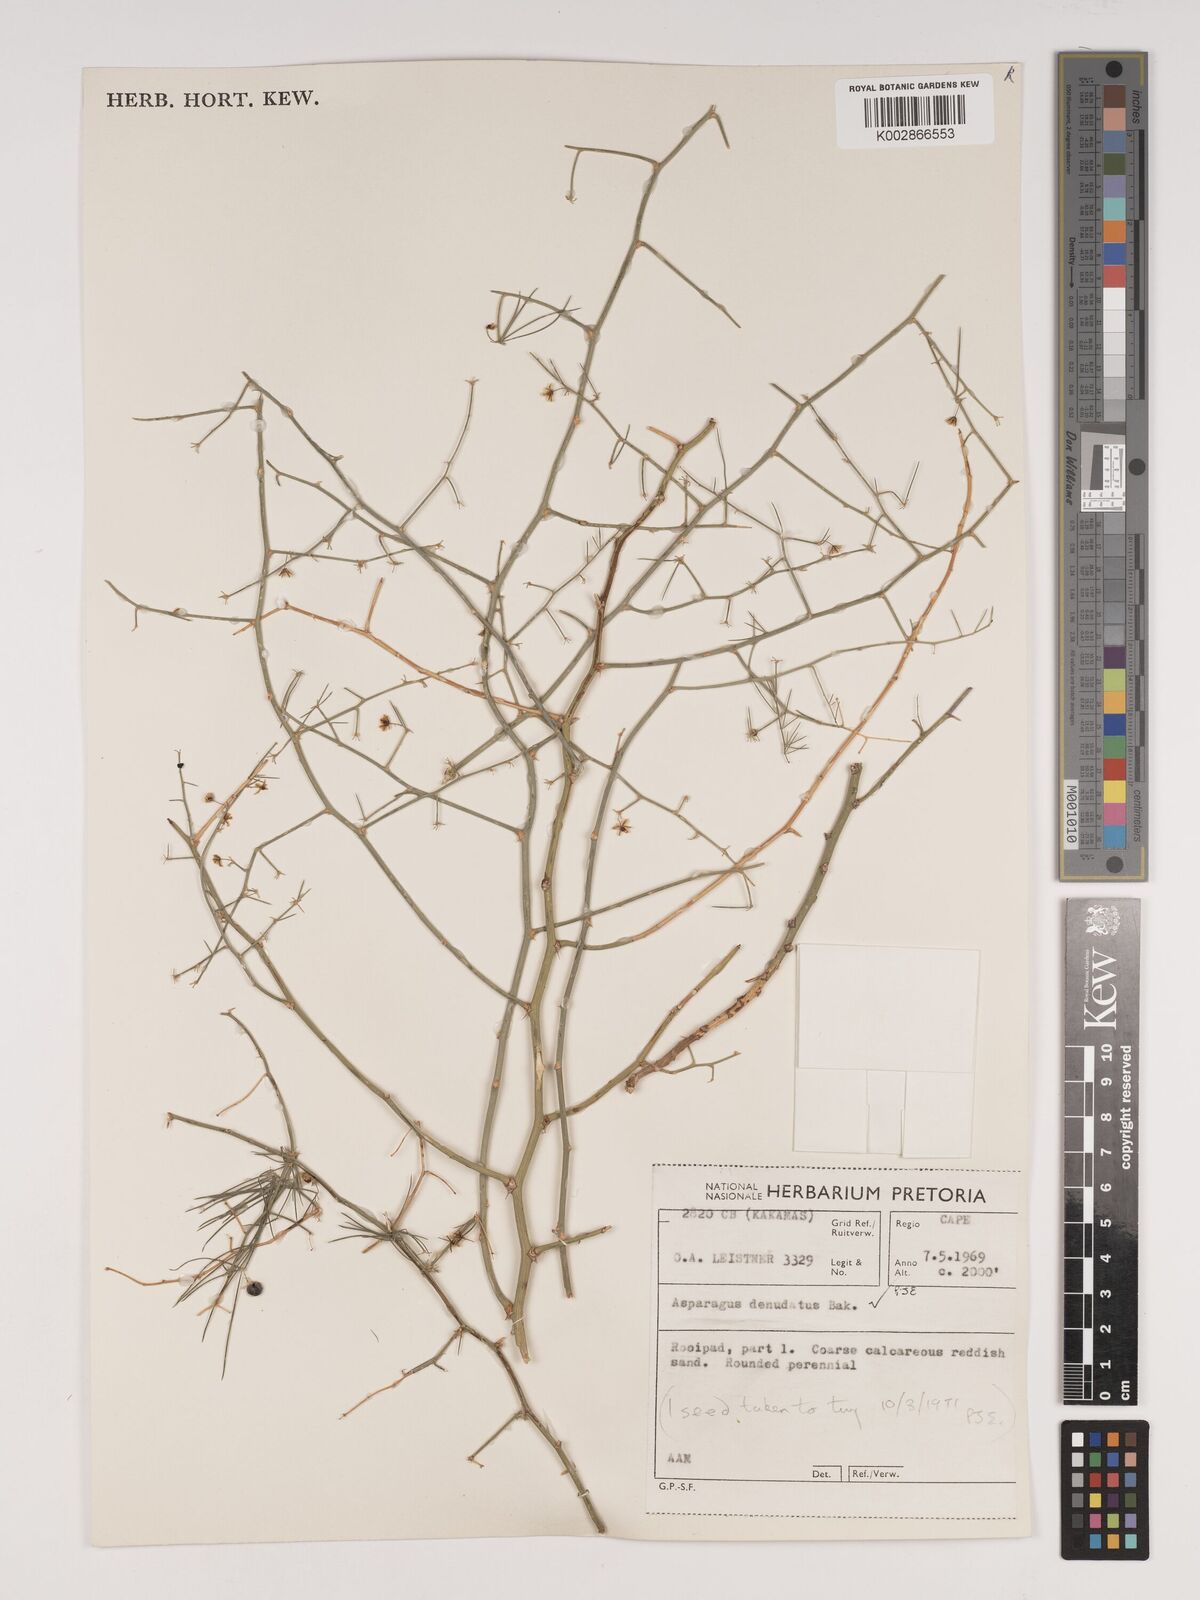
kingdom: Plantae
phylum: Tracheophyta
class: Liliopsida
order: Asparagales
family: Asparagaceae
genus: Asparagus
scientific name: Asparagus denudatus
